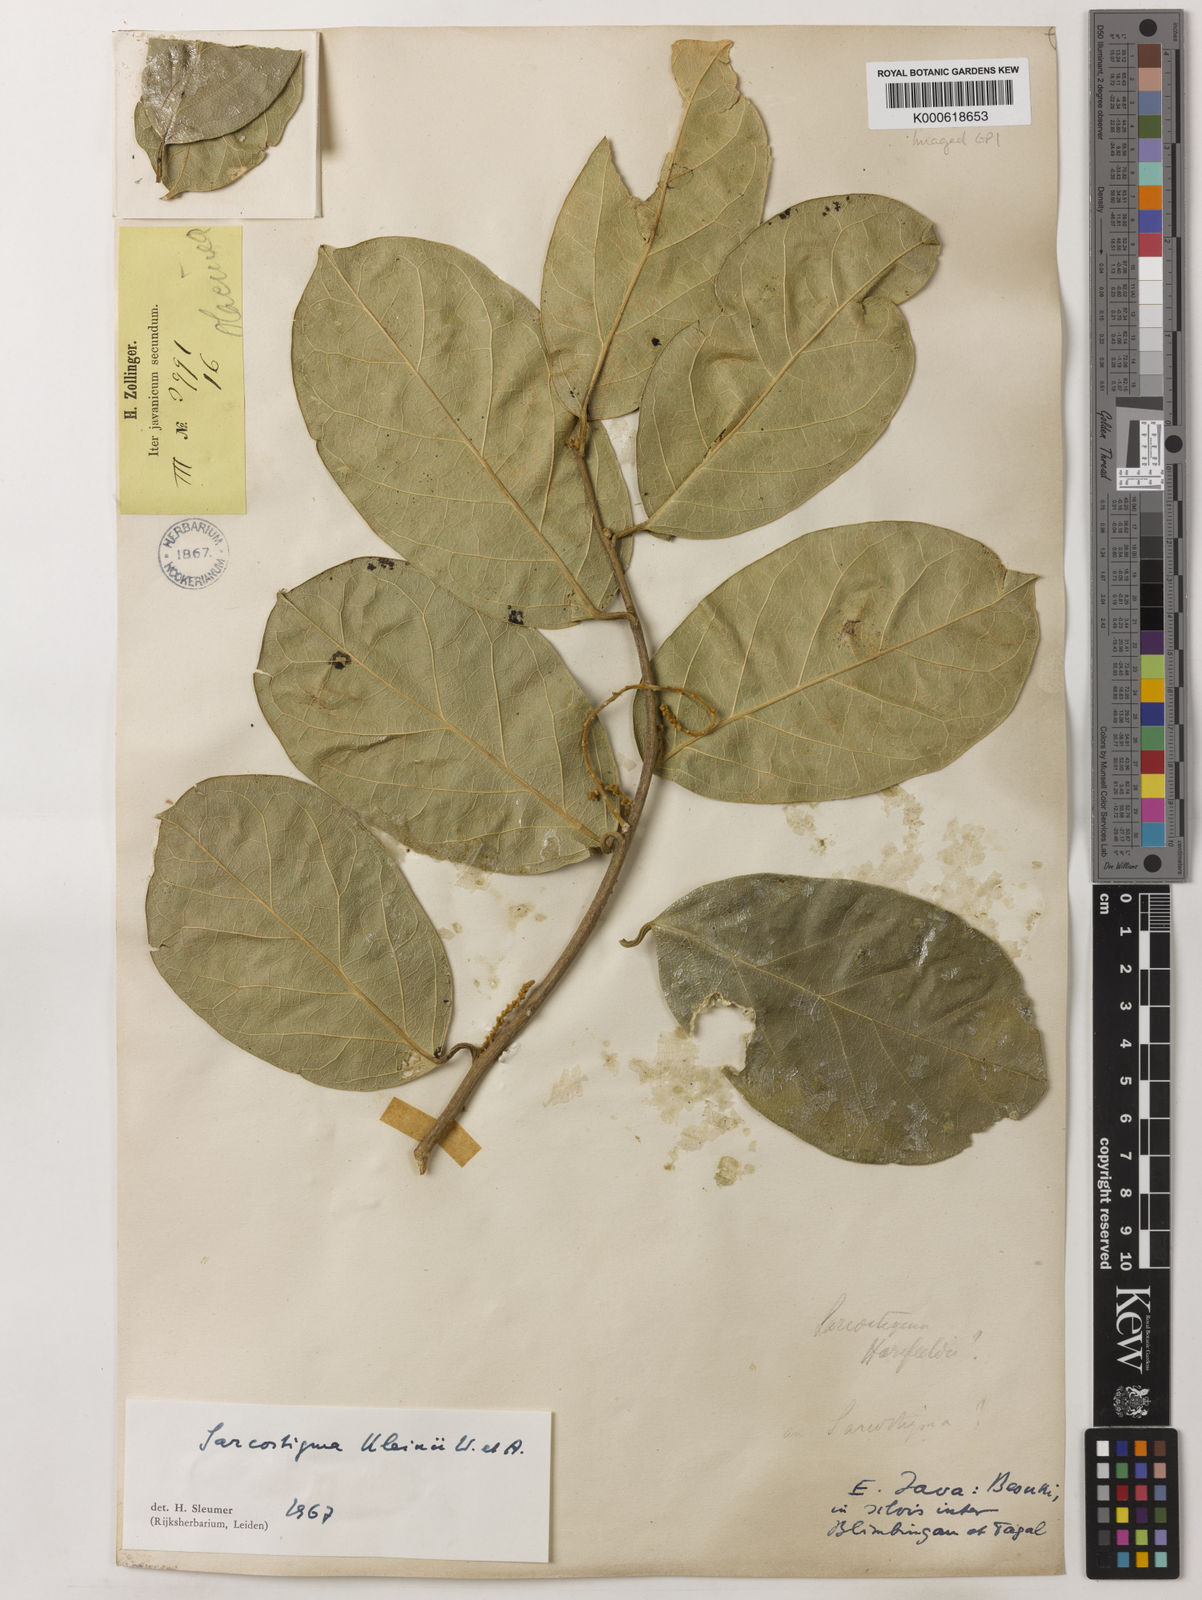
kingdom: Plantae
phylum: Tracheophyta
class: Magnoliopsida
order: Icacinales
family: Icacinaceae
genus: Sarcostigma
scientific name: Sarcostigma kleinii
